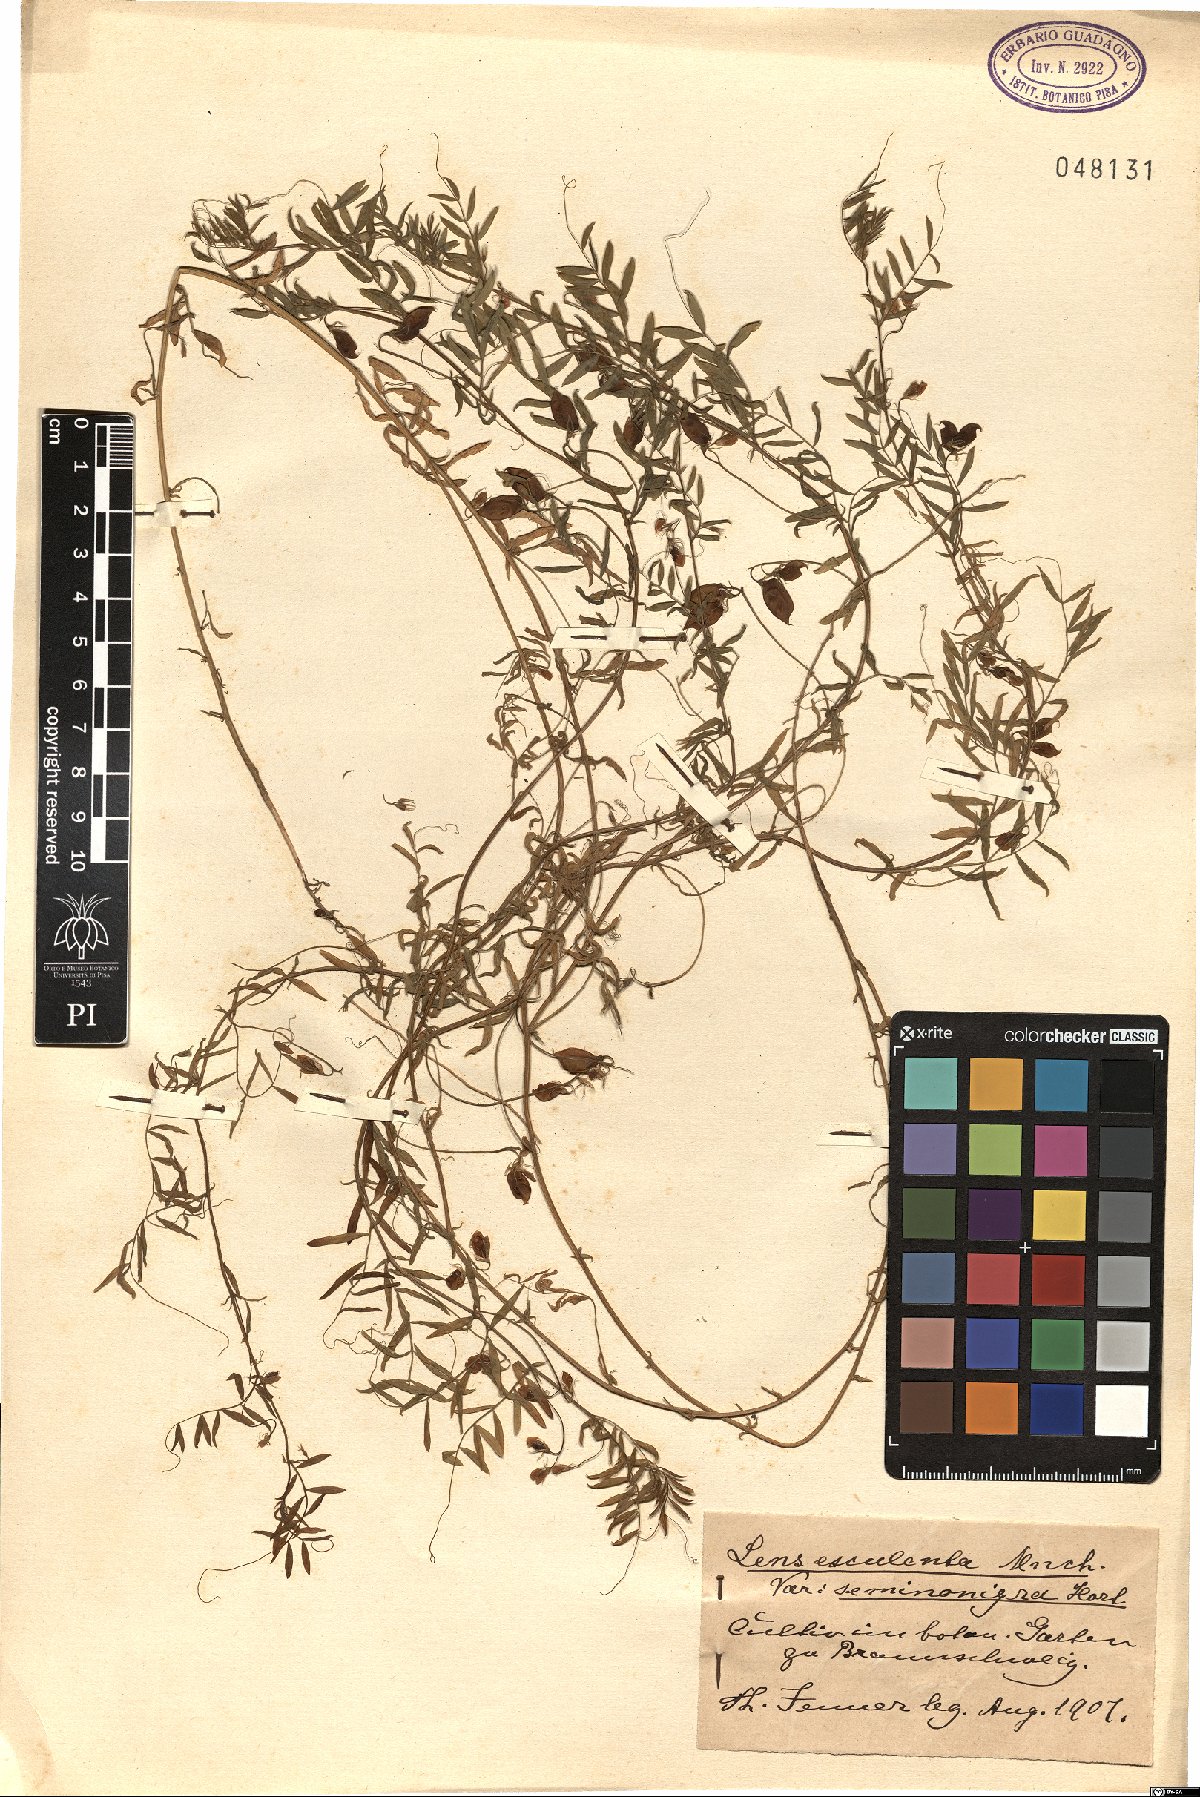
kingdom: Plantae
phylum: Tracheophyta
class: Magnoliopsida
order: Fabales
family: Fabaceae
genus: Vicia
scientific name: Vicia lens
